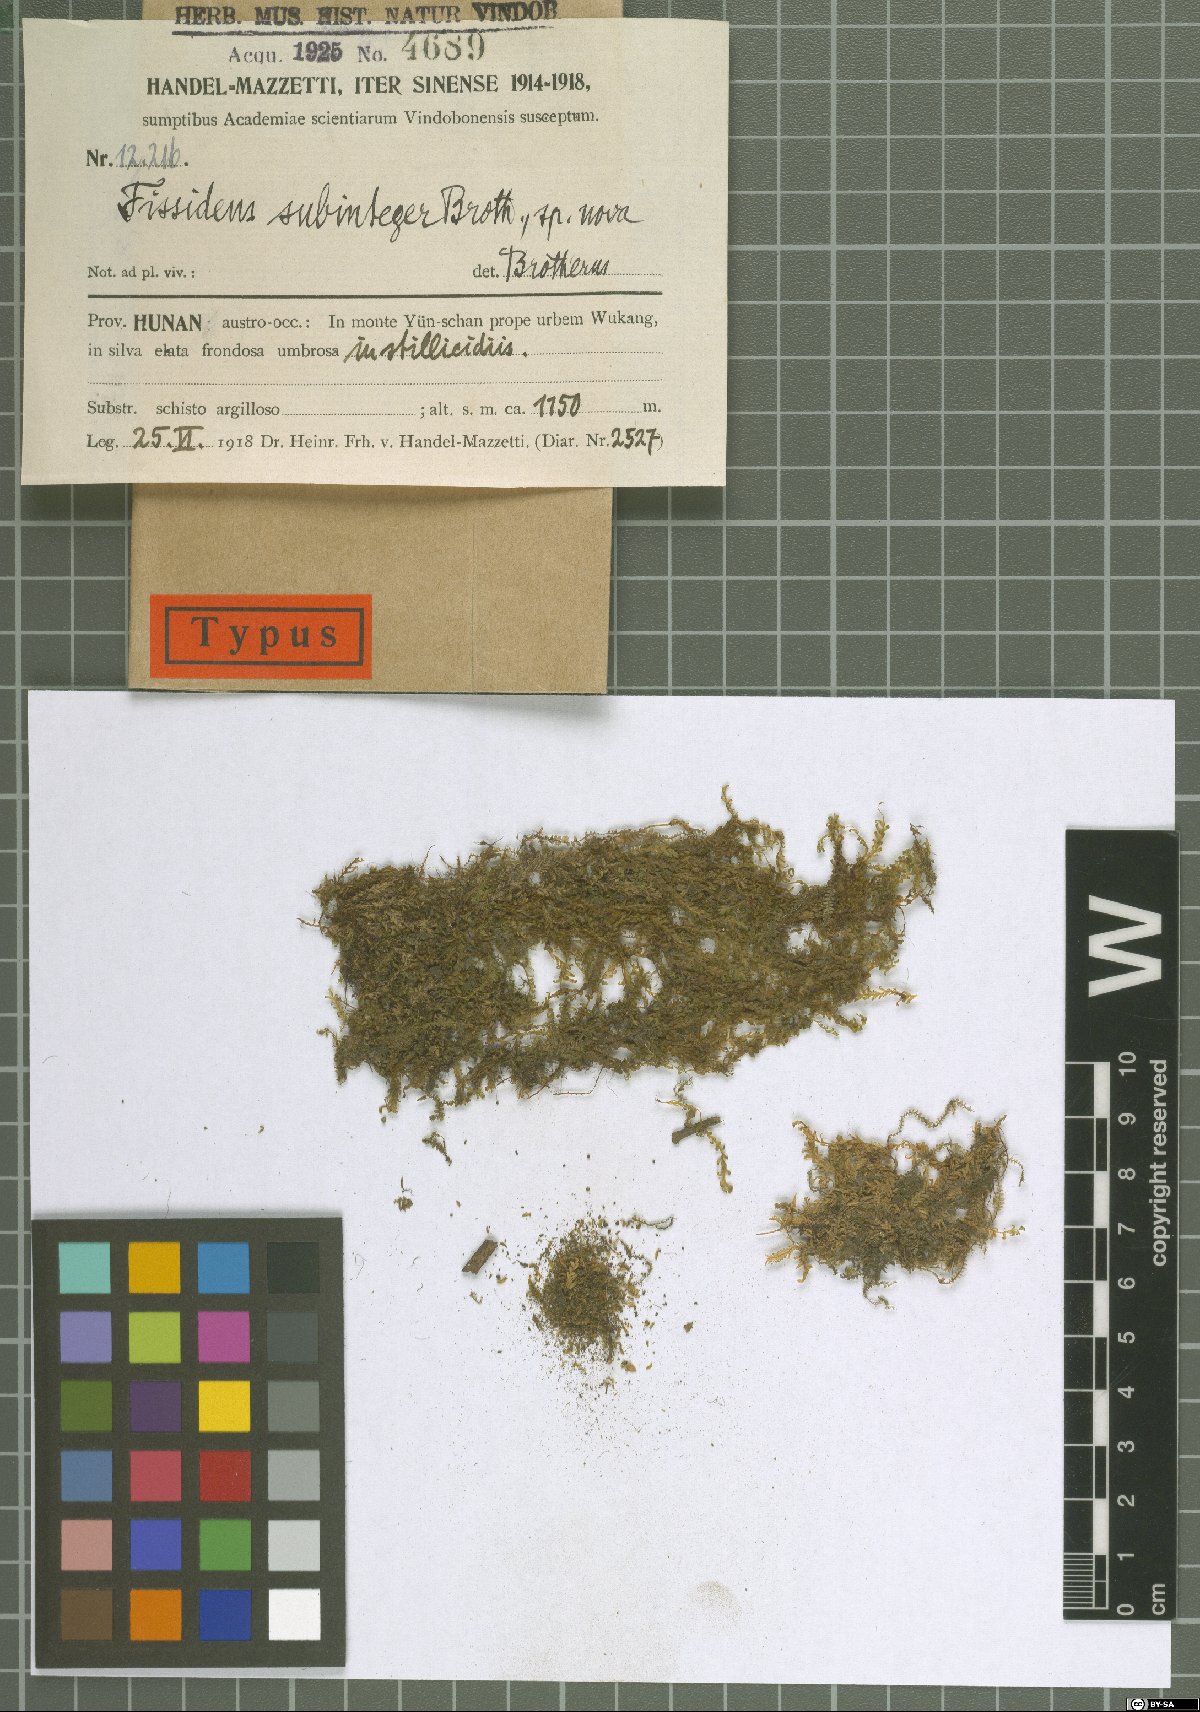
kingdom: Plantae
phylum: Bryophyta
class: Bryopsida
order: Dicranales
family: Fissidentaceae
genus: Fissidens
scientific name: Fissidens involutus
